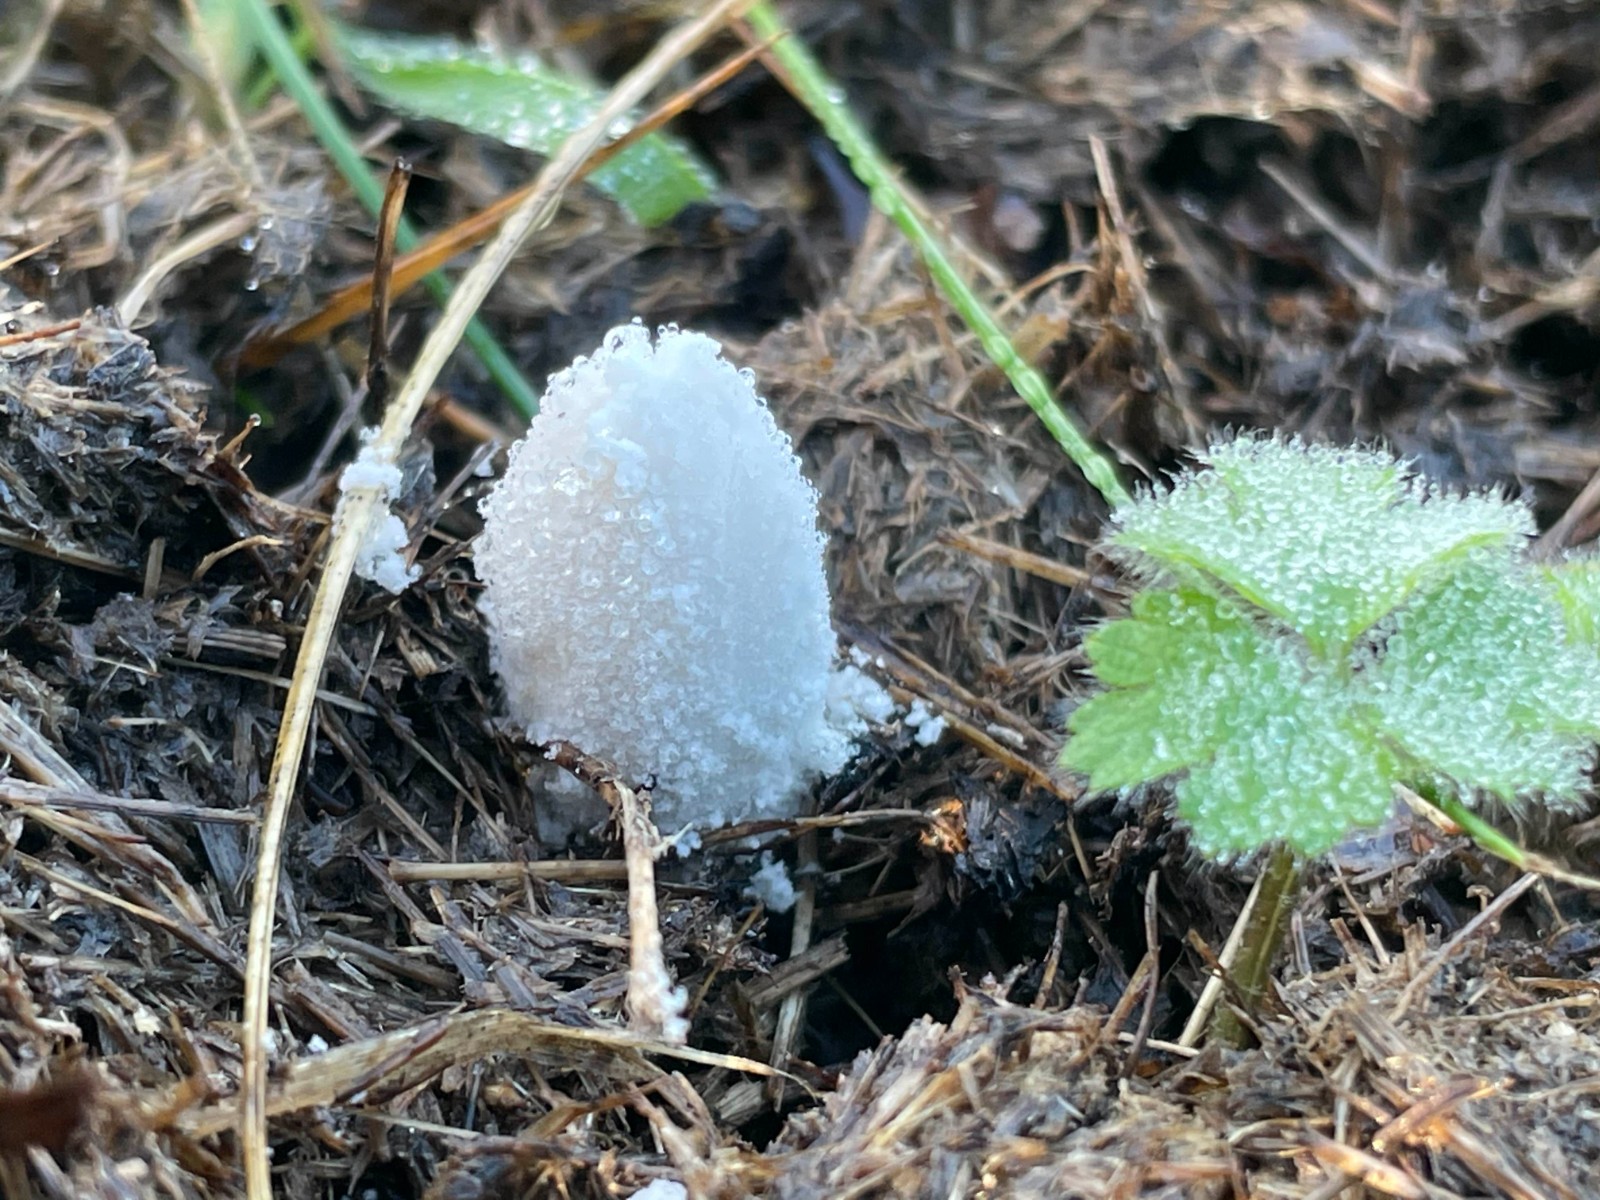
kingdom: Fungi
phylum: Basidiomycota
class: Agaricomycetes
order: Agaricales
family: Psathyrellaceae
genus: Coprinopsis
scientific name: Coprinopsis nivea
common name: snehvid blækhat
